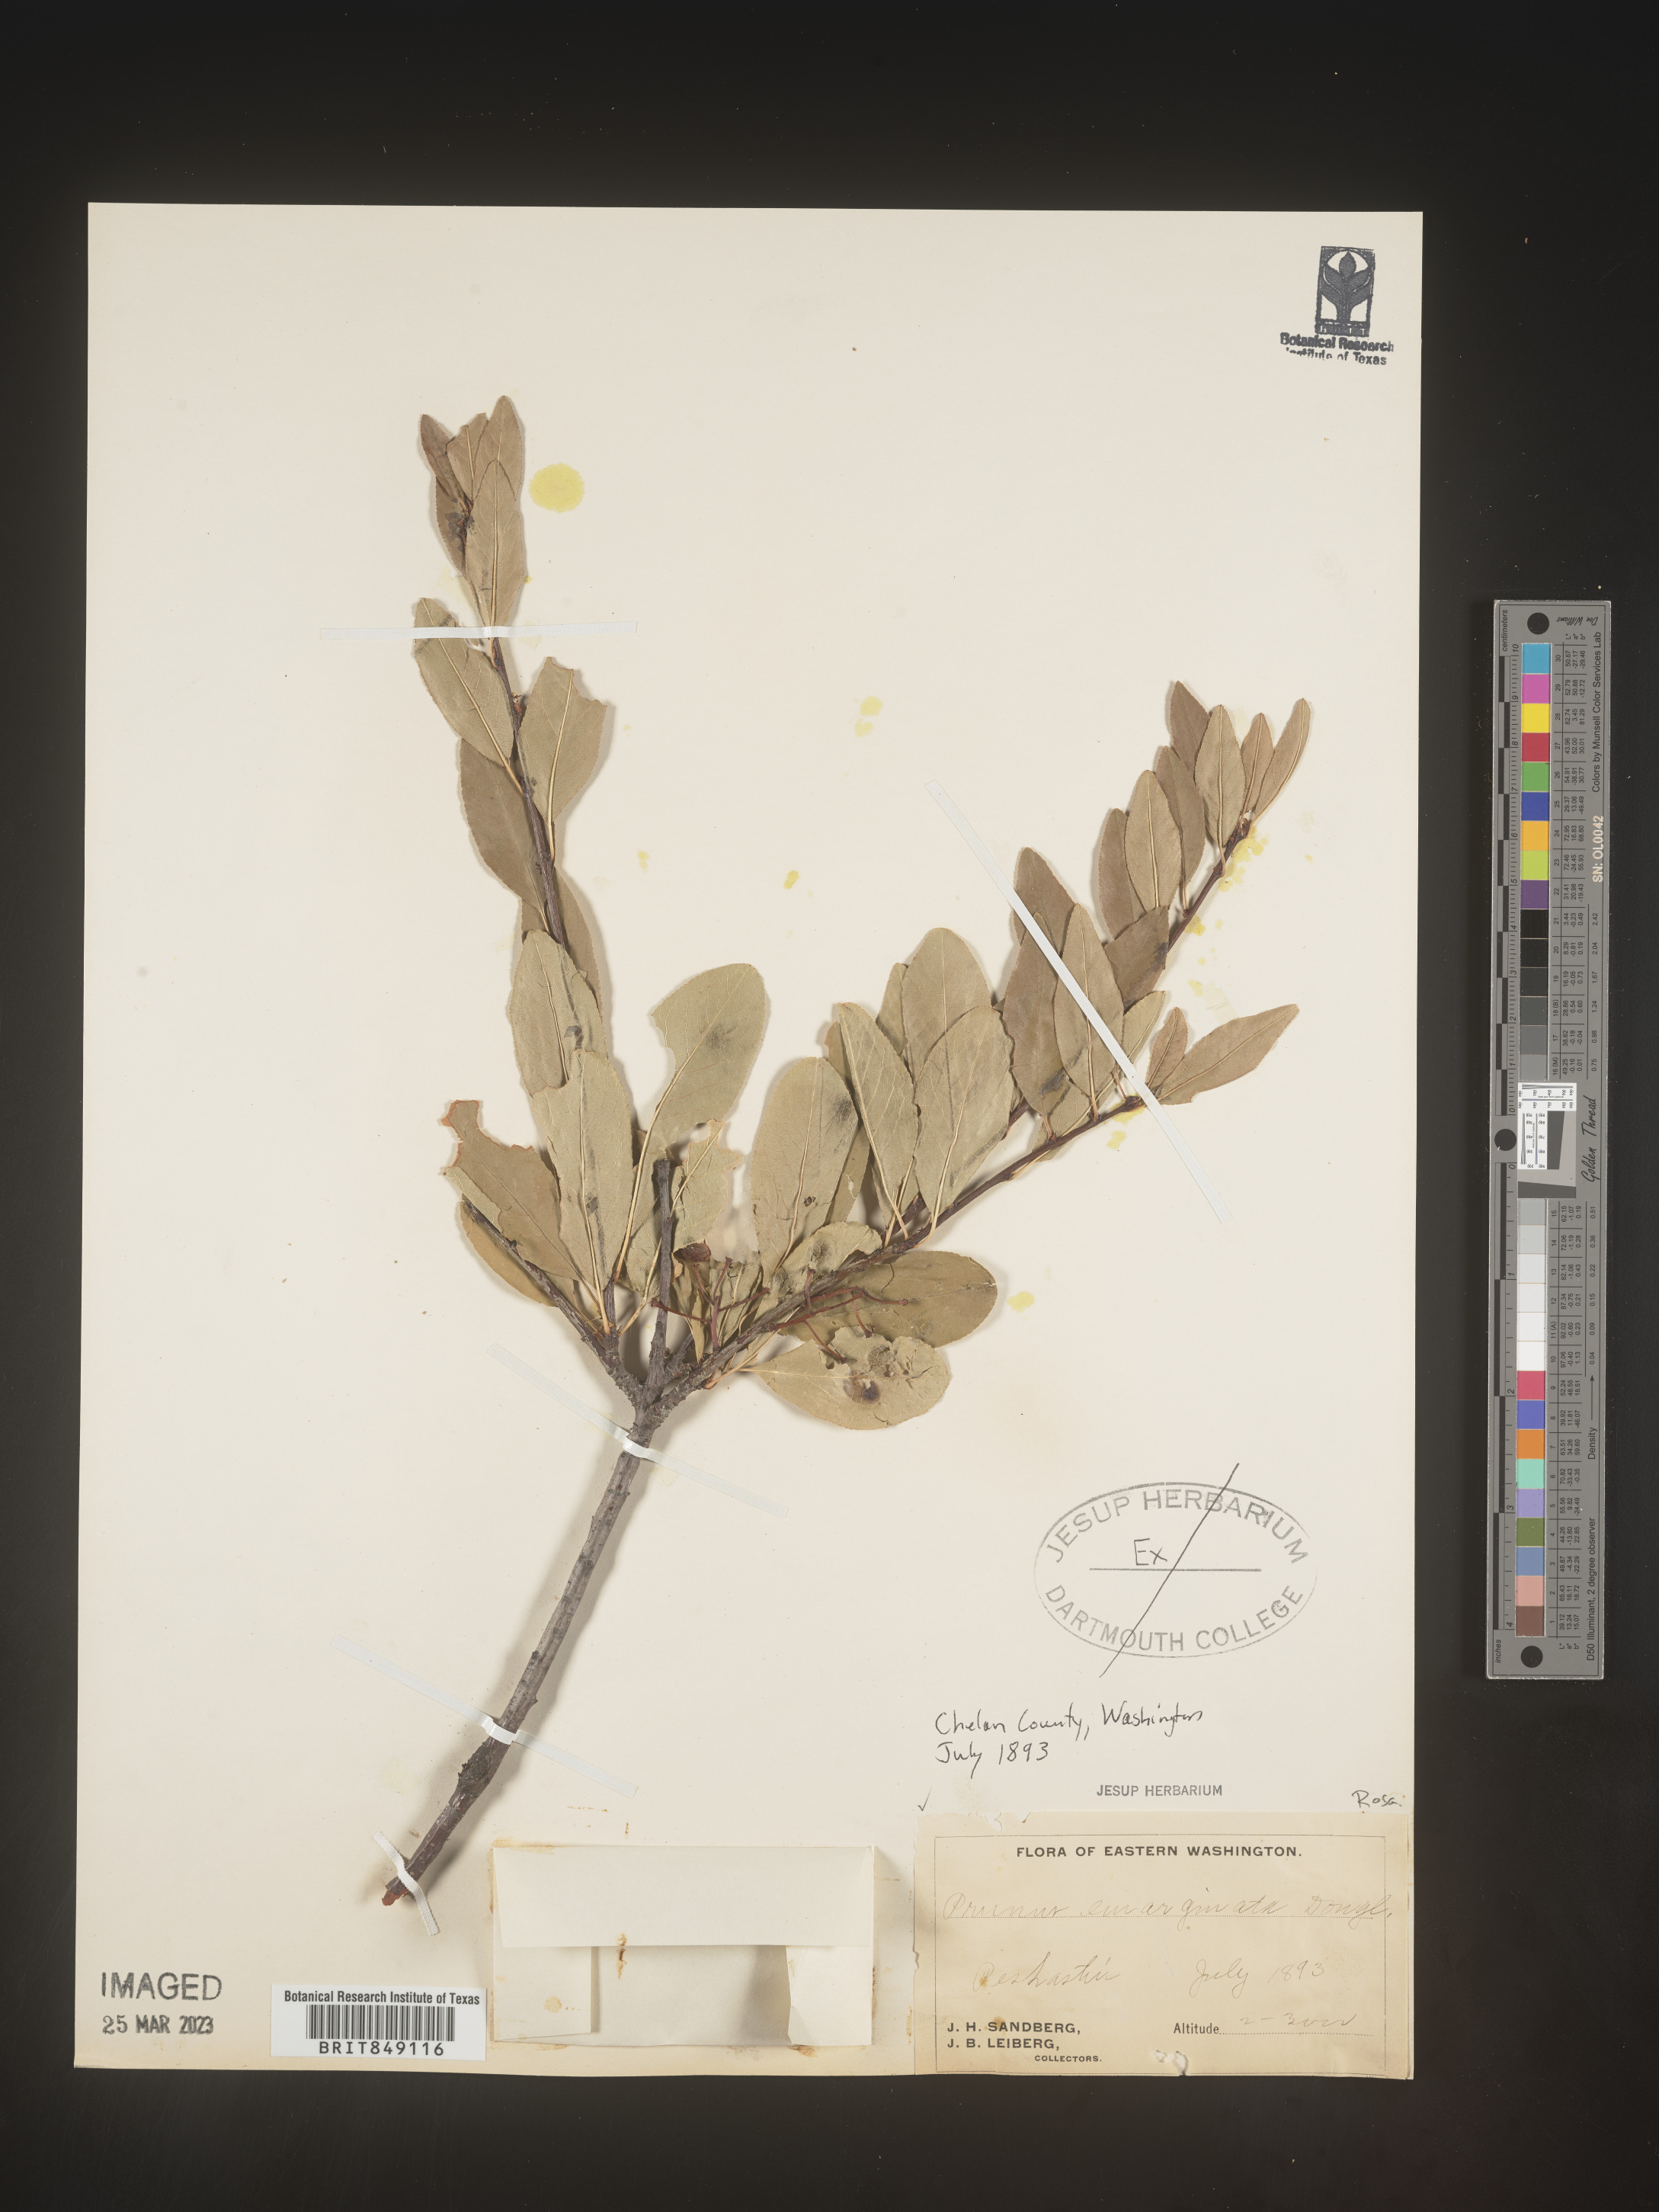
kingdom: Plantae
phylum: Tracheophyta
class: Magnoliopsida
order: Rosales
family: Rosaceae
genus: Prunus
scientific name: Prunus emarginata
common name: Bitter cherry
